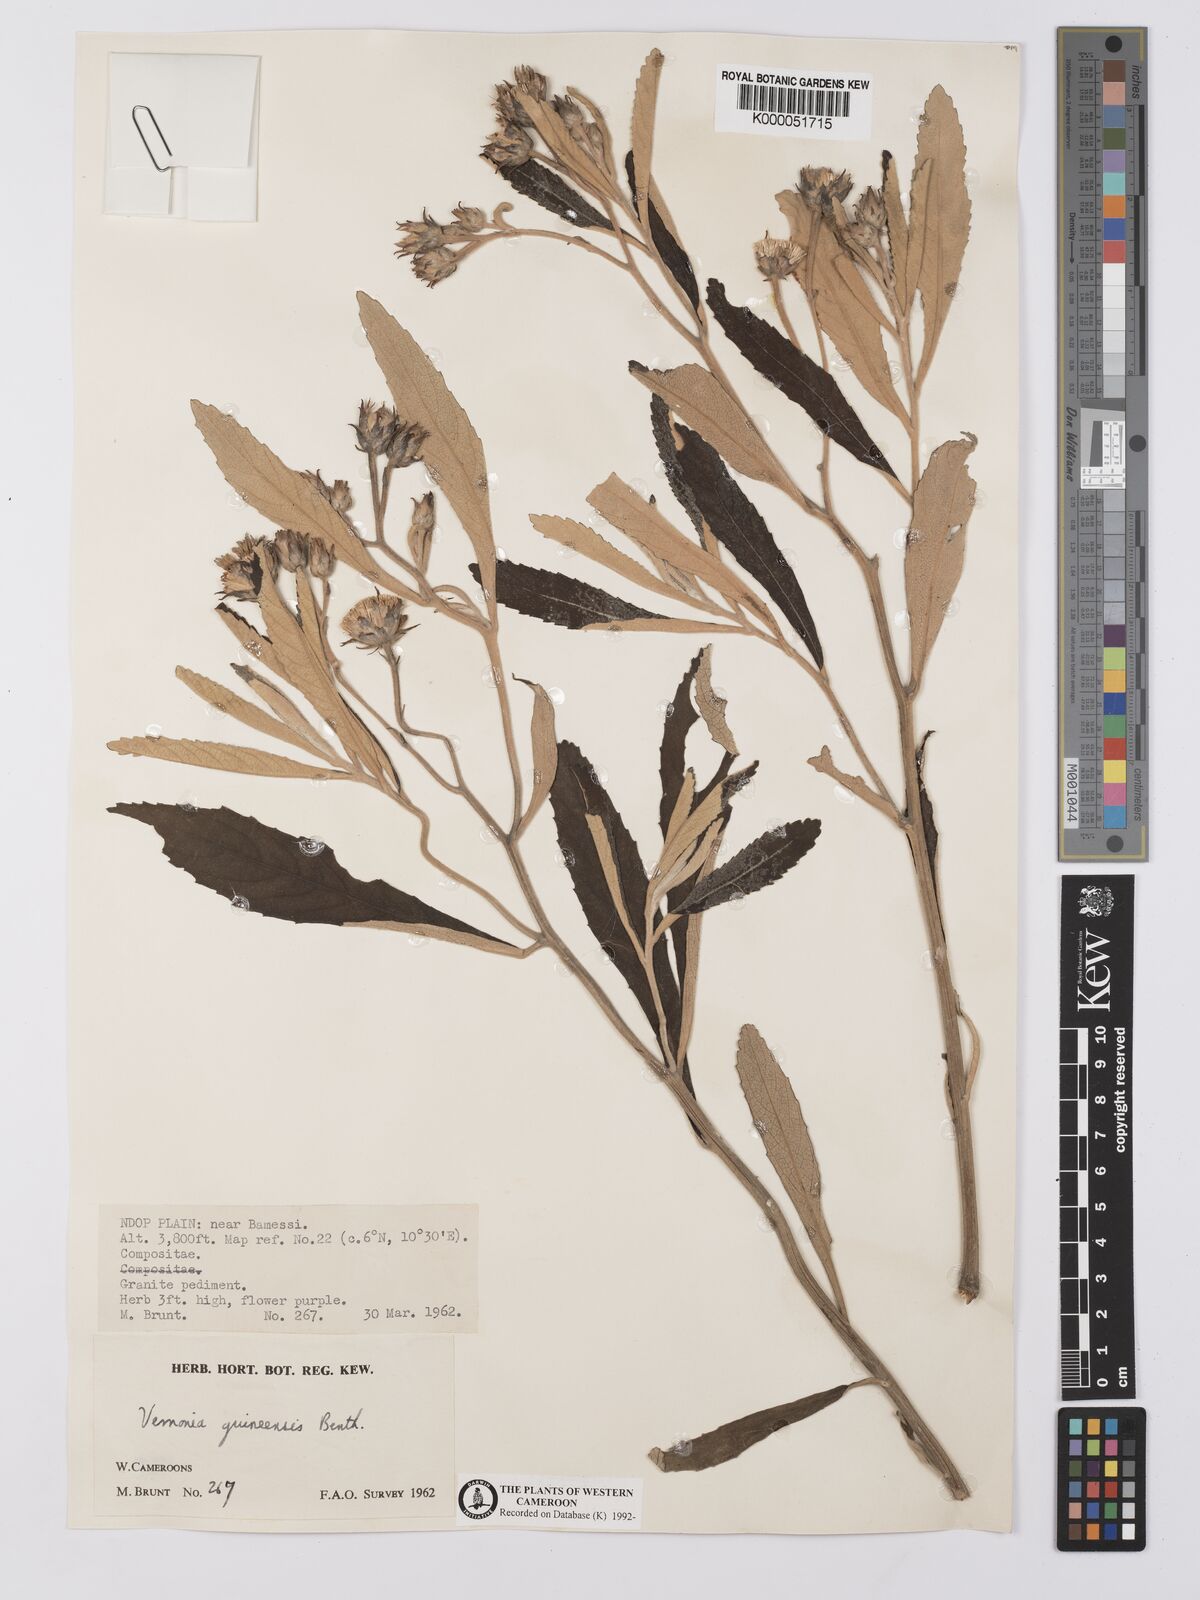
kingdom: Plantae
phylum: Tracheophyta
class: Magnoliopsida
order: Asterales
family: Asteraceae
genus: Baccharoides
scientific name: Baccharoides guineensis
